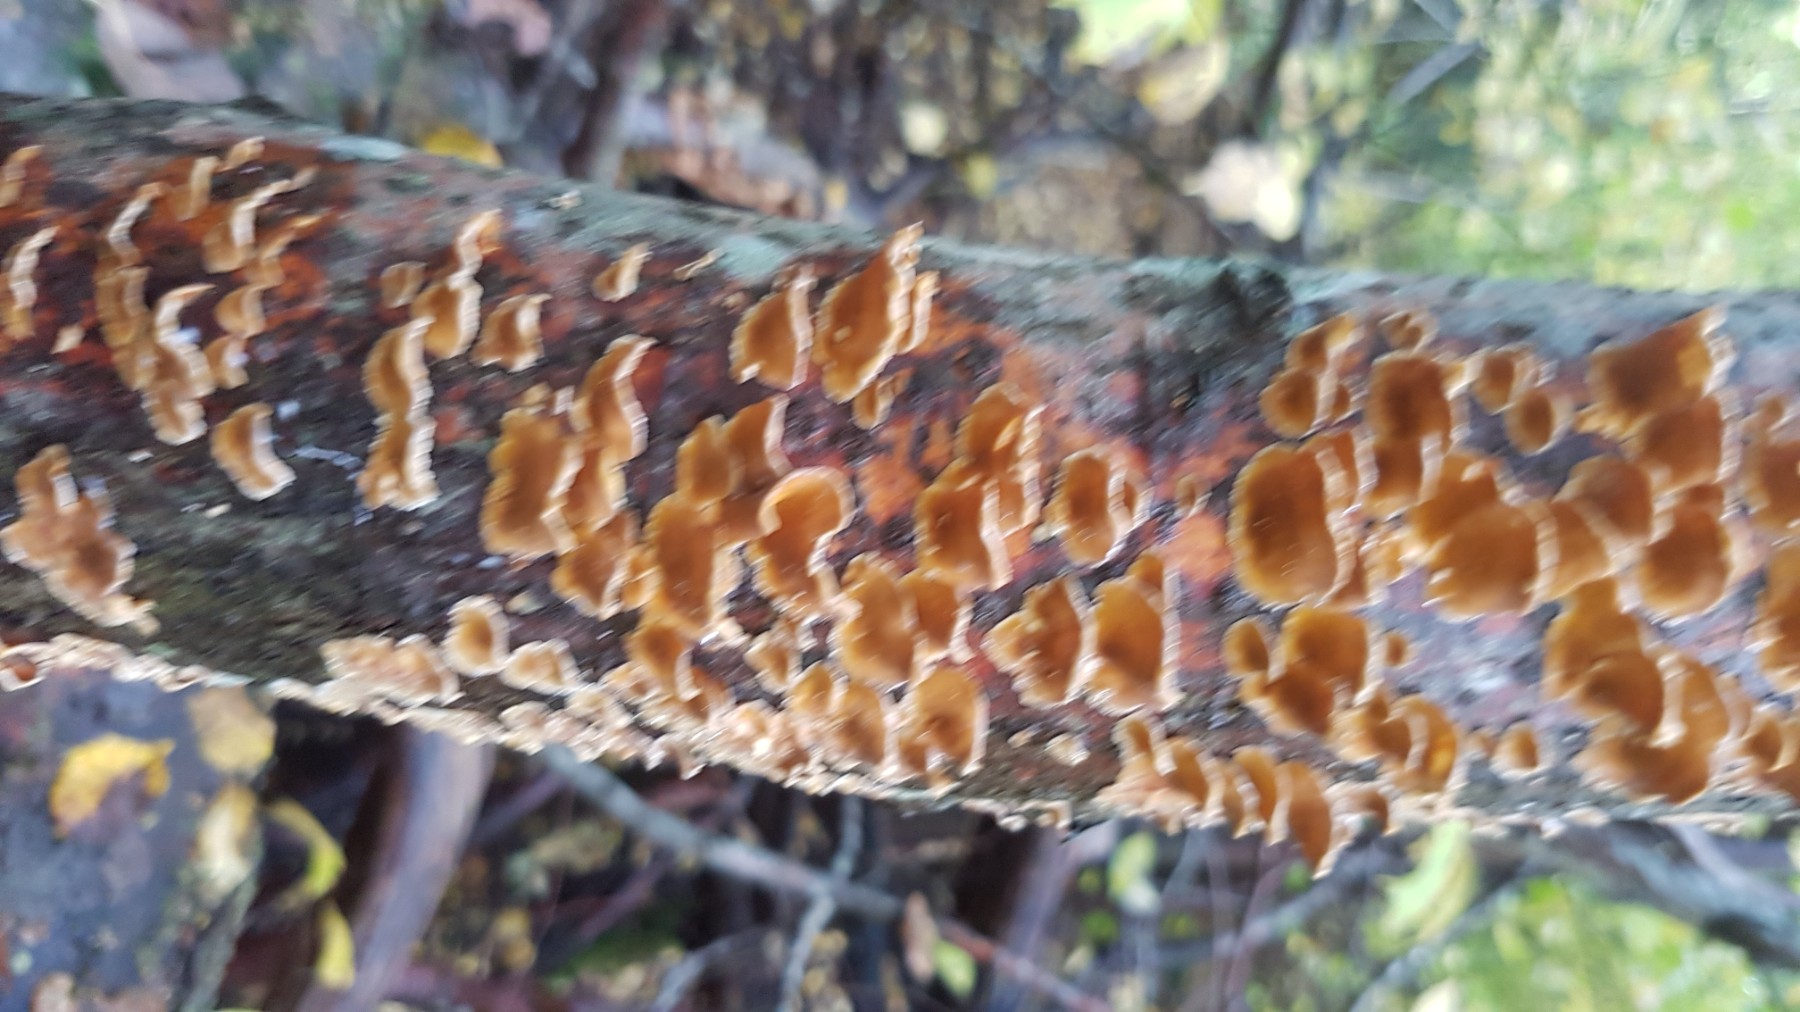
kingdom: Fungi
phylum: Basidiomycota
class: Agaricomycetes
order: Russulales
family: Stereaceae
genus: Stereum
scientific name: Stereum hirsutum
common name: håret lædersvamp
